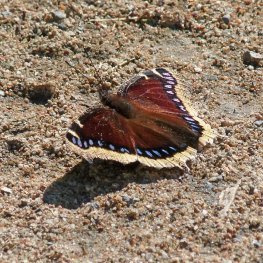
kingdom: Animalia
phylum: Arthropoda
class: Insecta
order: Lepidoptera
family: Nymphalidae
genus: Nymphalis
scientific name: Nymphalis antiopa
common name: Mourning Cloak
